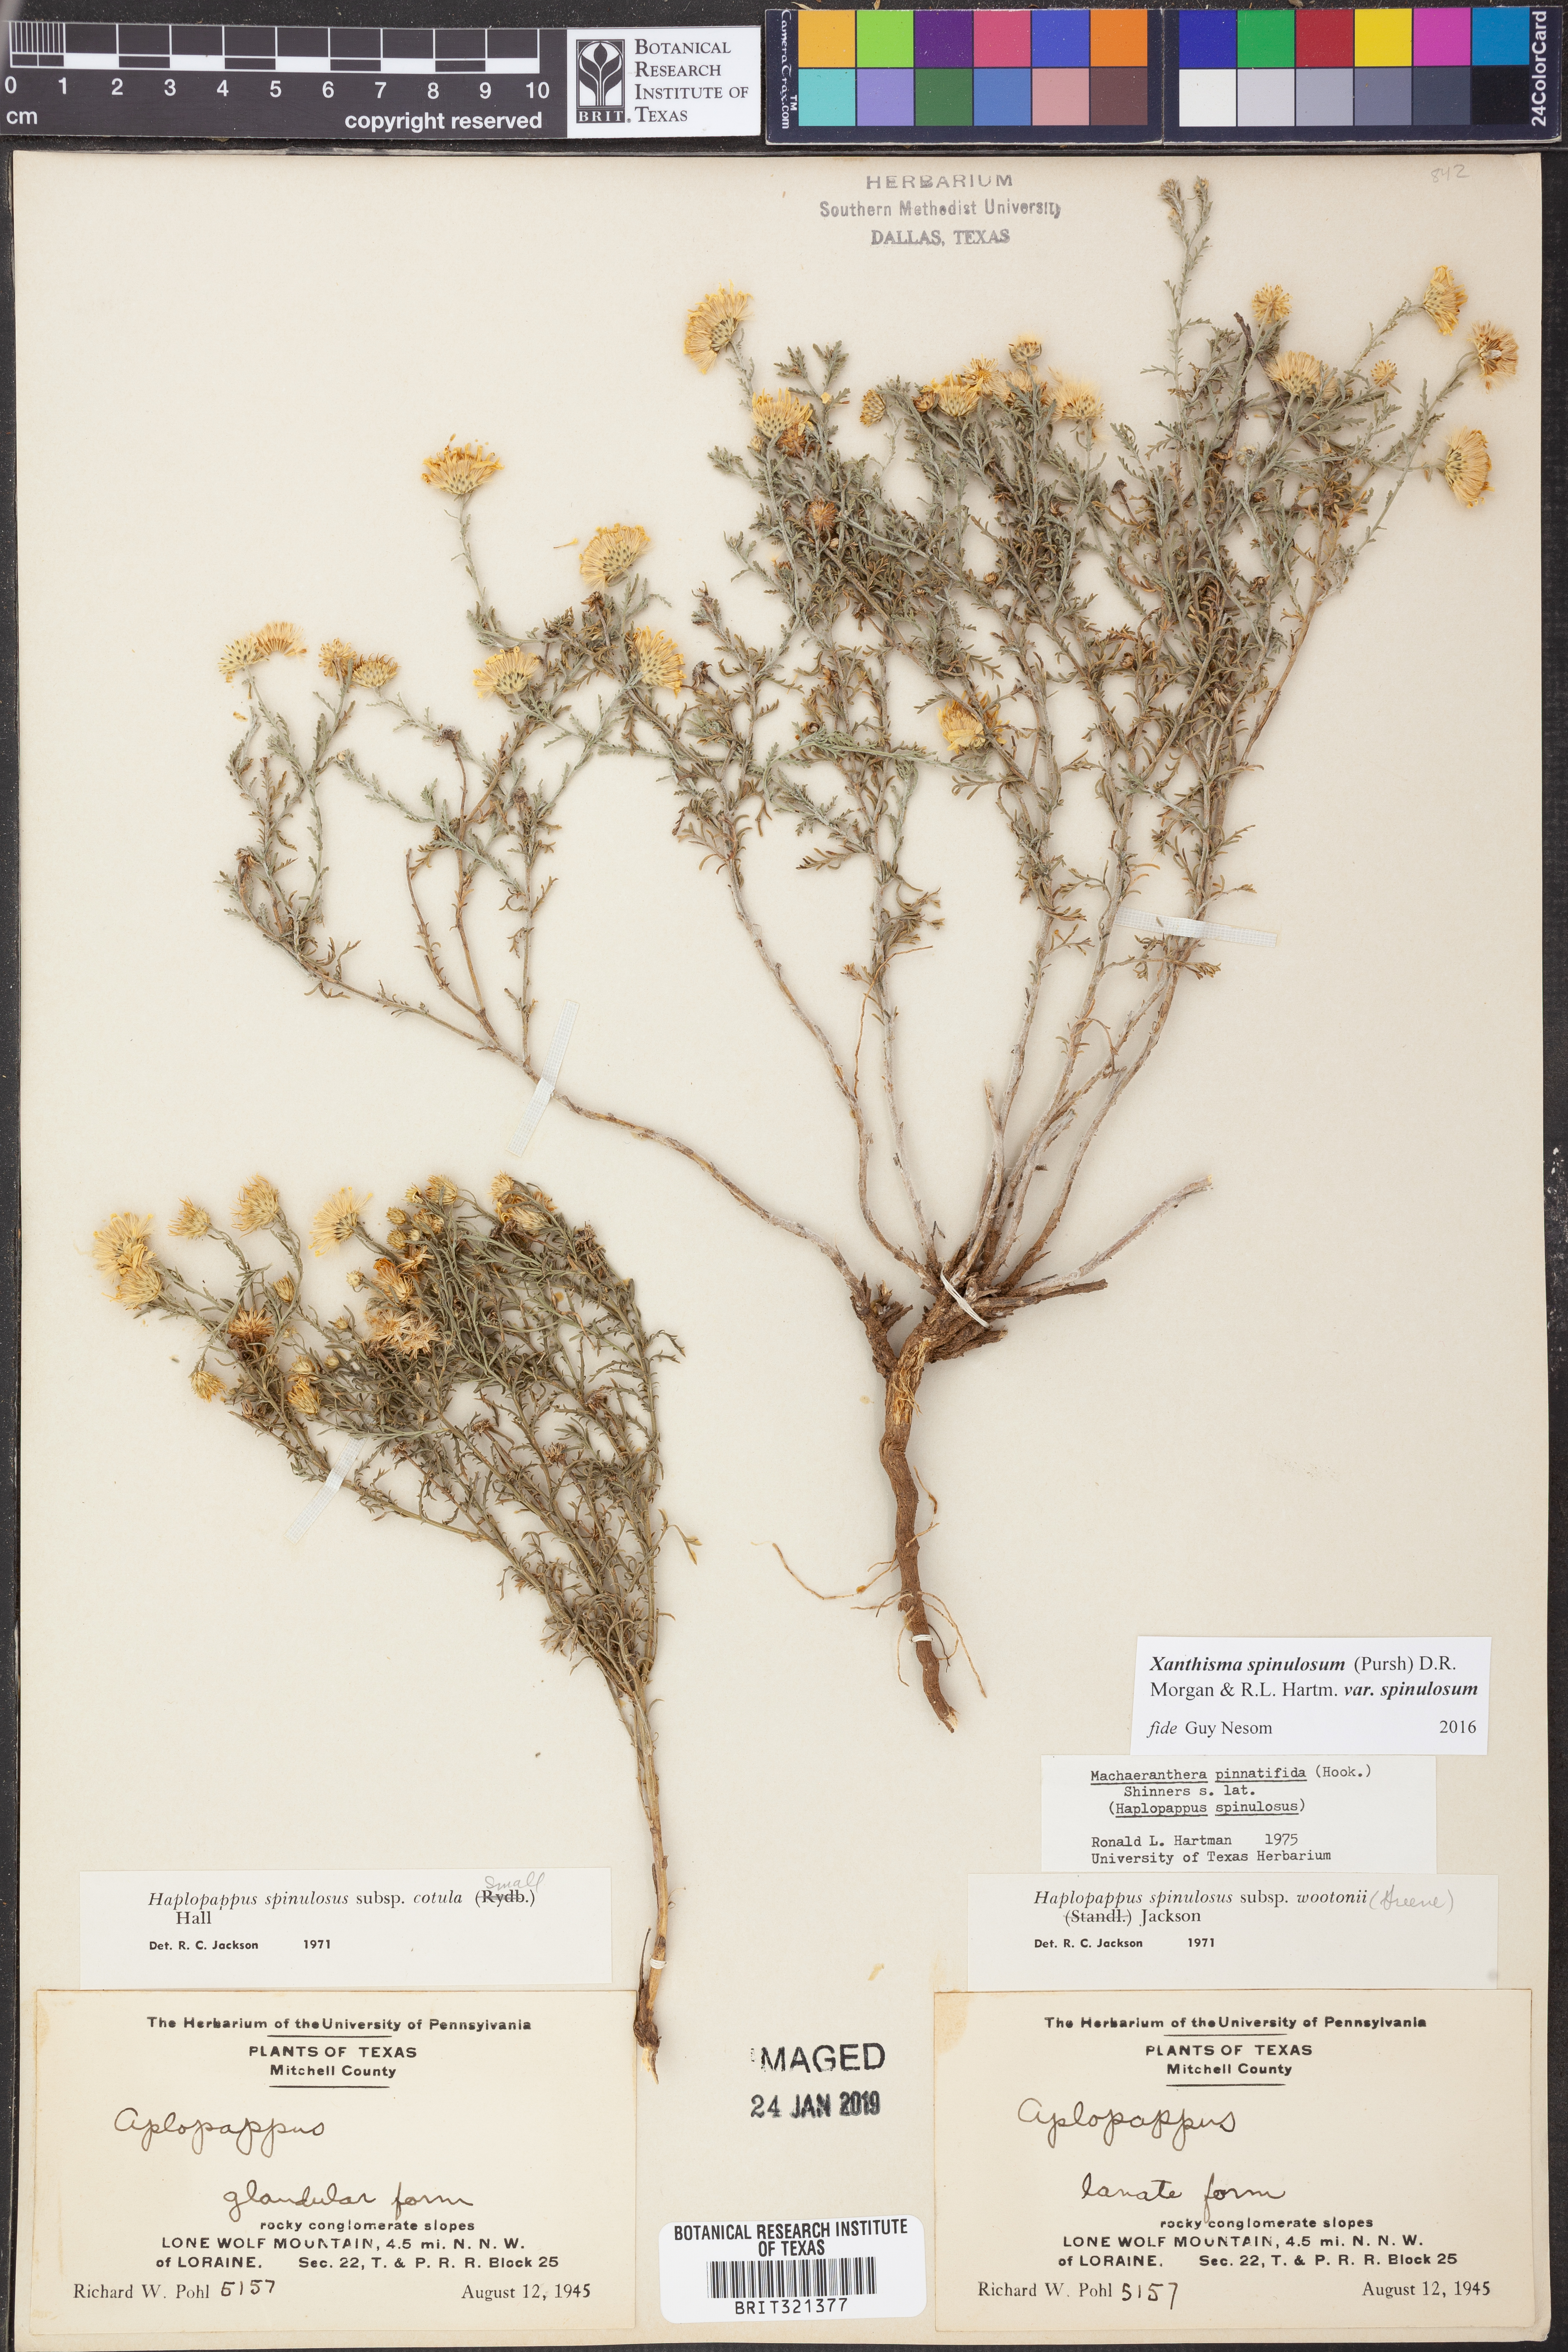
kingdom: Plantae
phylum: Tracheophyta
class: Magnoliopsida
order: Asterales
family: Asteraceae
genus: Xanthisma
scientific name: Xanthisma spinulosum
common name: Spiny goldenweed
